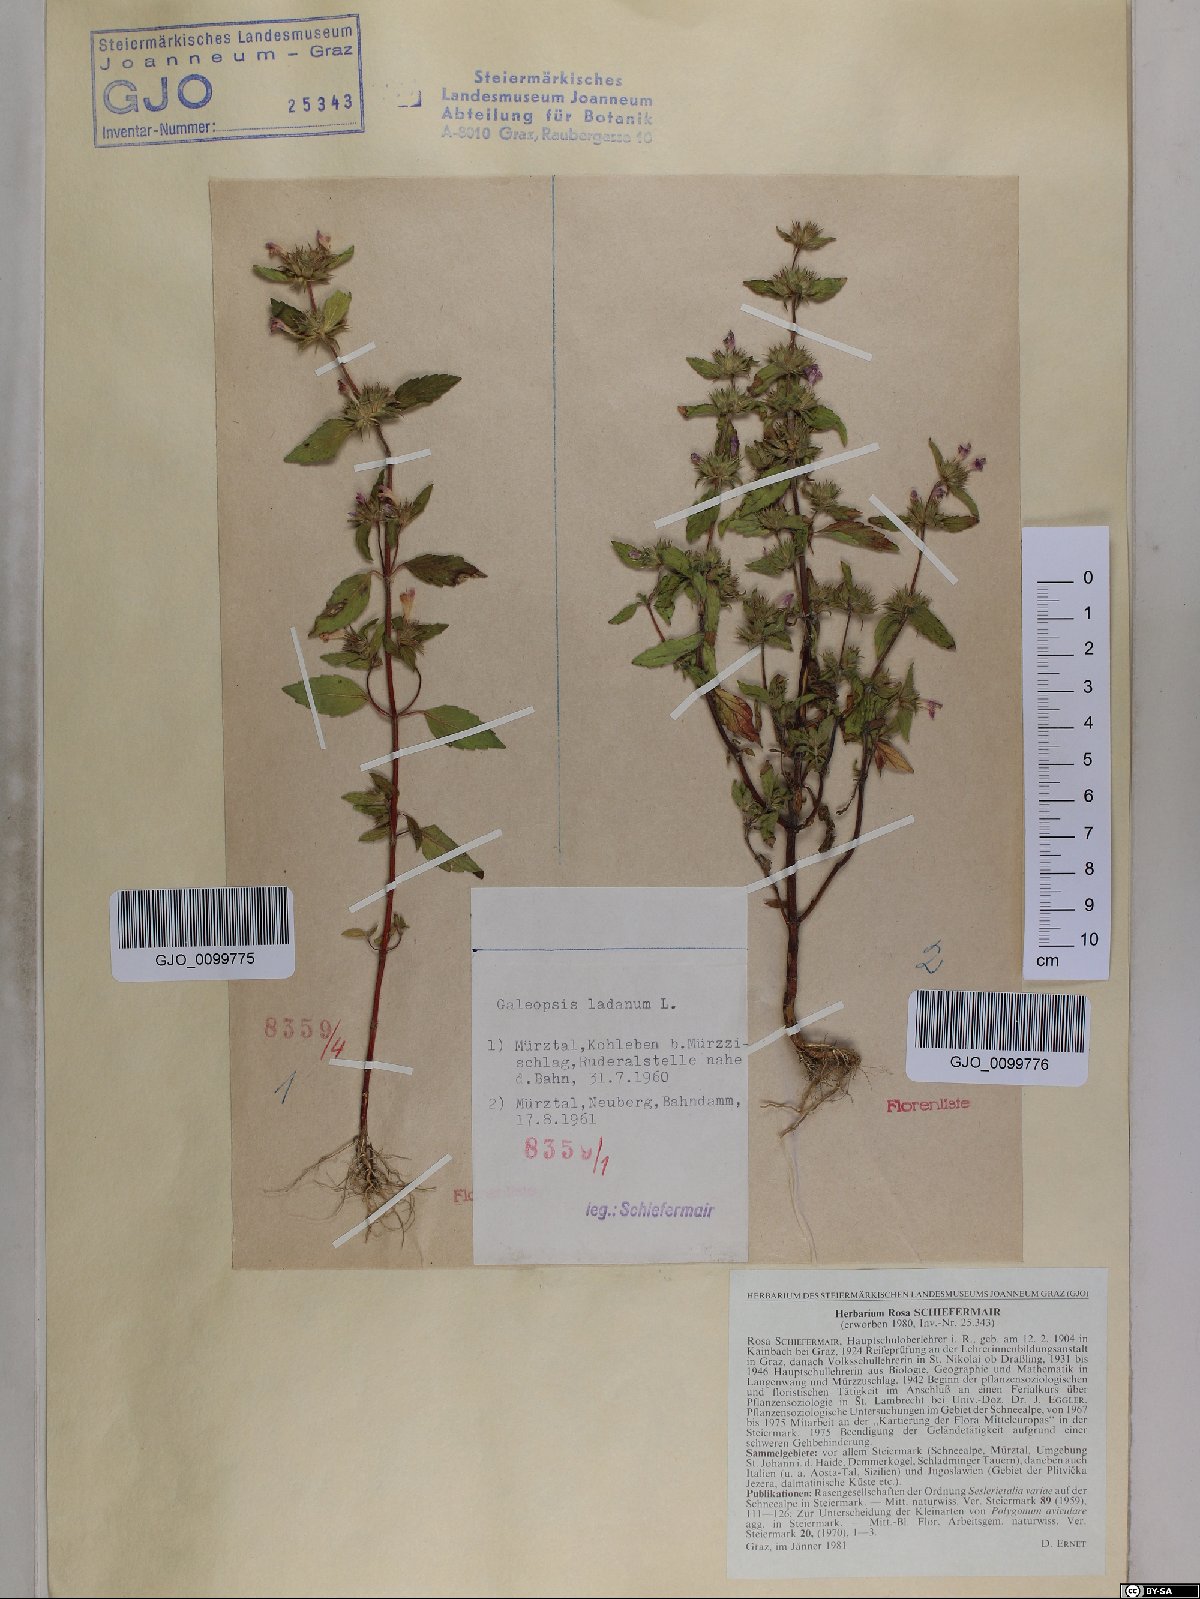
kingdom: Plantae
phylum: Tracheophyta
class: Magnoliopsida
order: Lamiales
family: Lamiaceae
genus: Galeopsis
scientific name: Galeopsis ladanum
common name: Broad-leaved hemp-nettle
